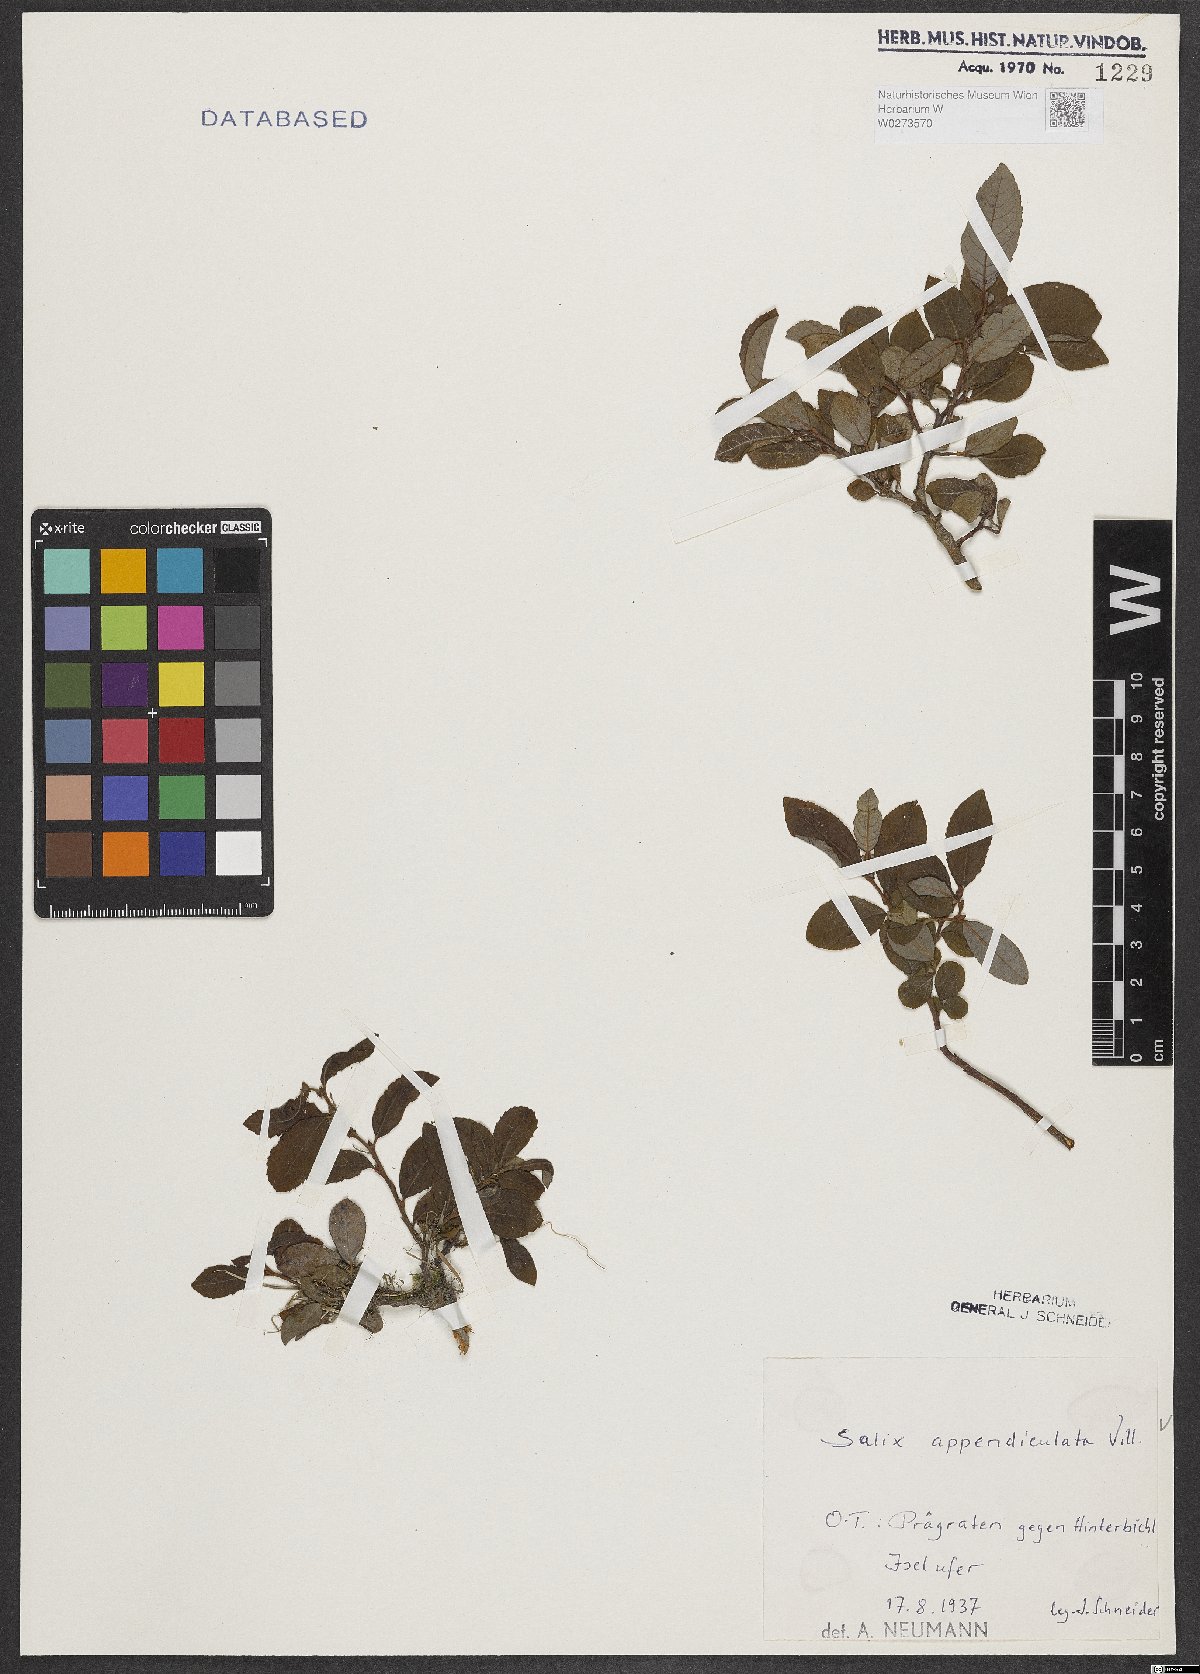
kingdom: Plantae
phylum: Tracheophyta
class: Magnoliopsida
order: Malpighiales
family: Salicaceae
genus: Salix
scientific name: Salix appendiculata
